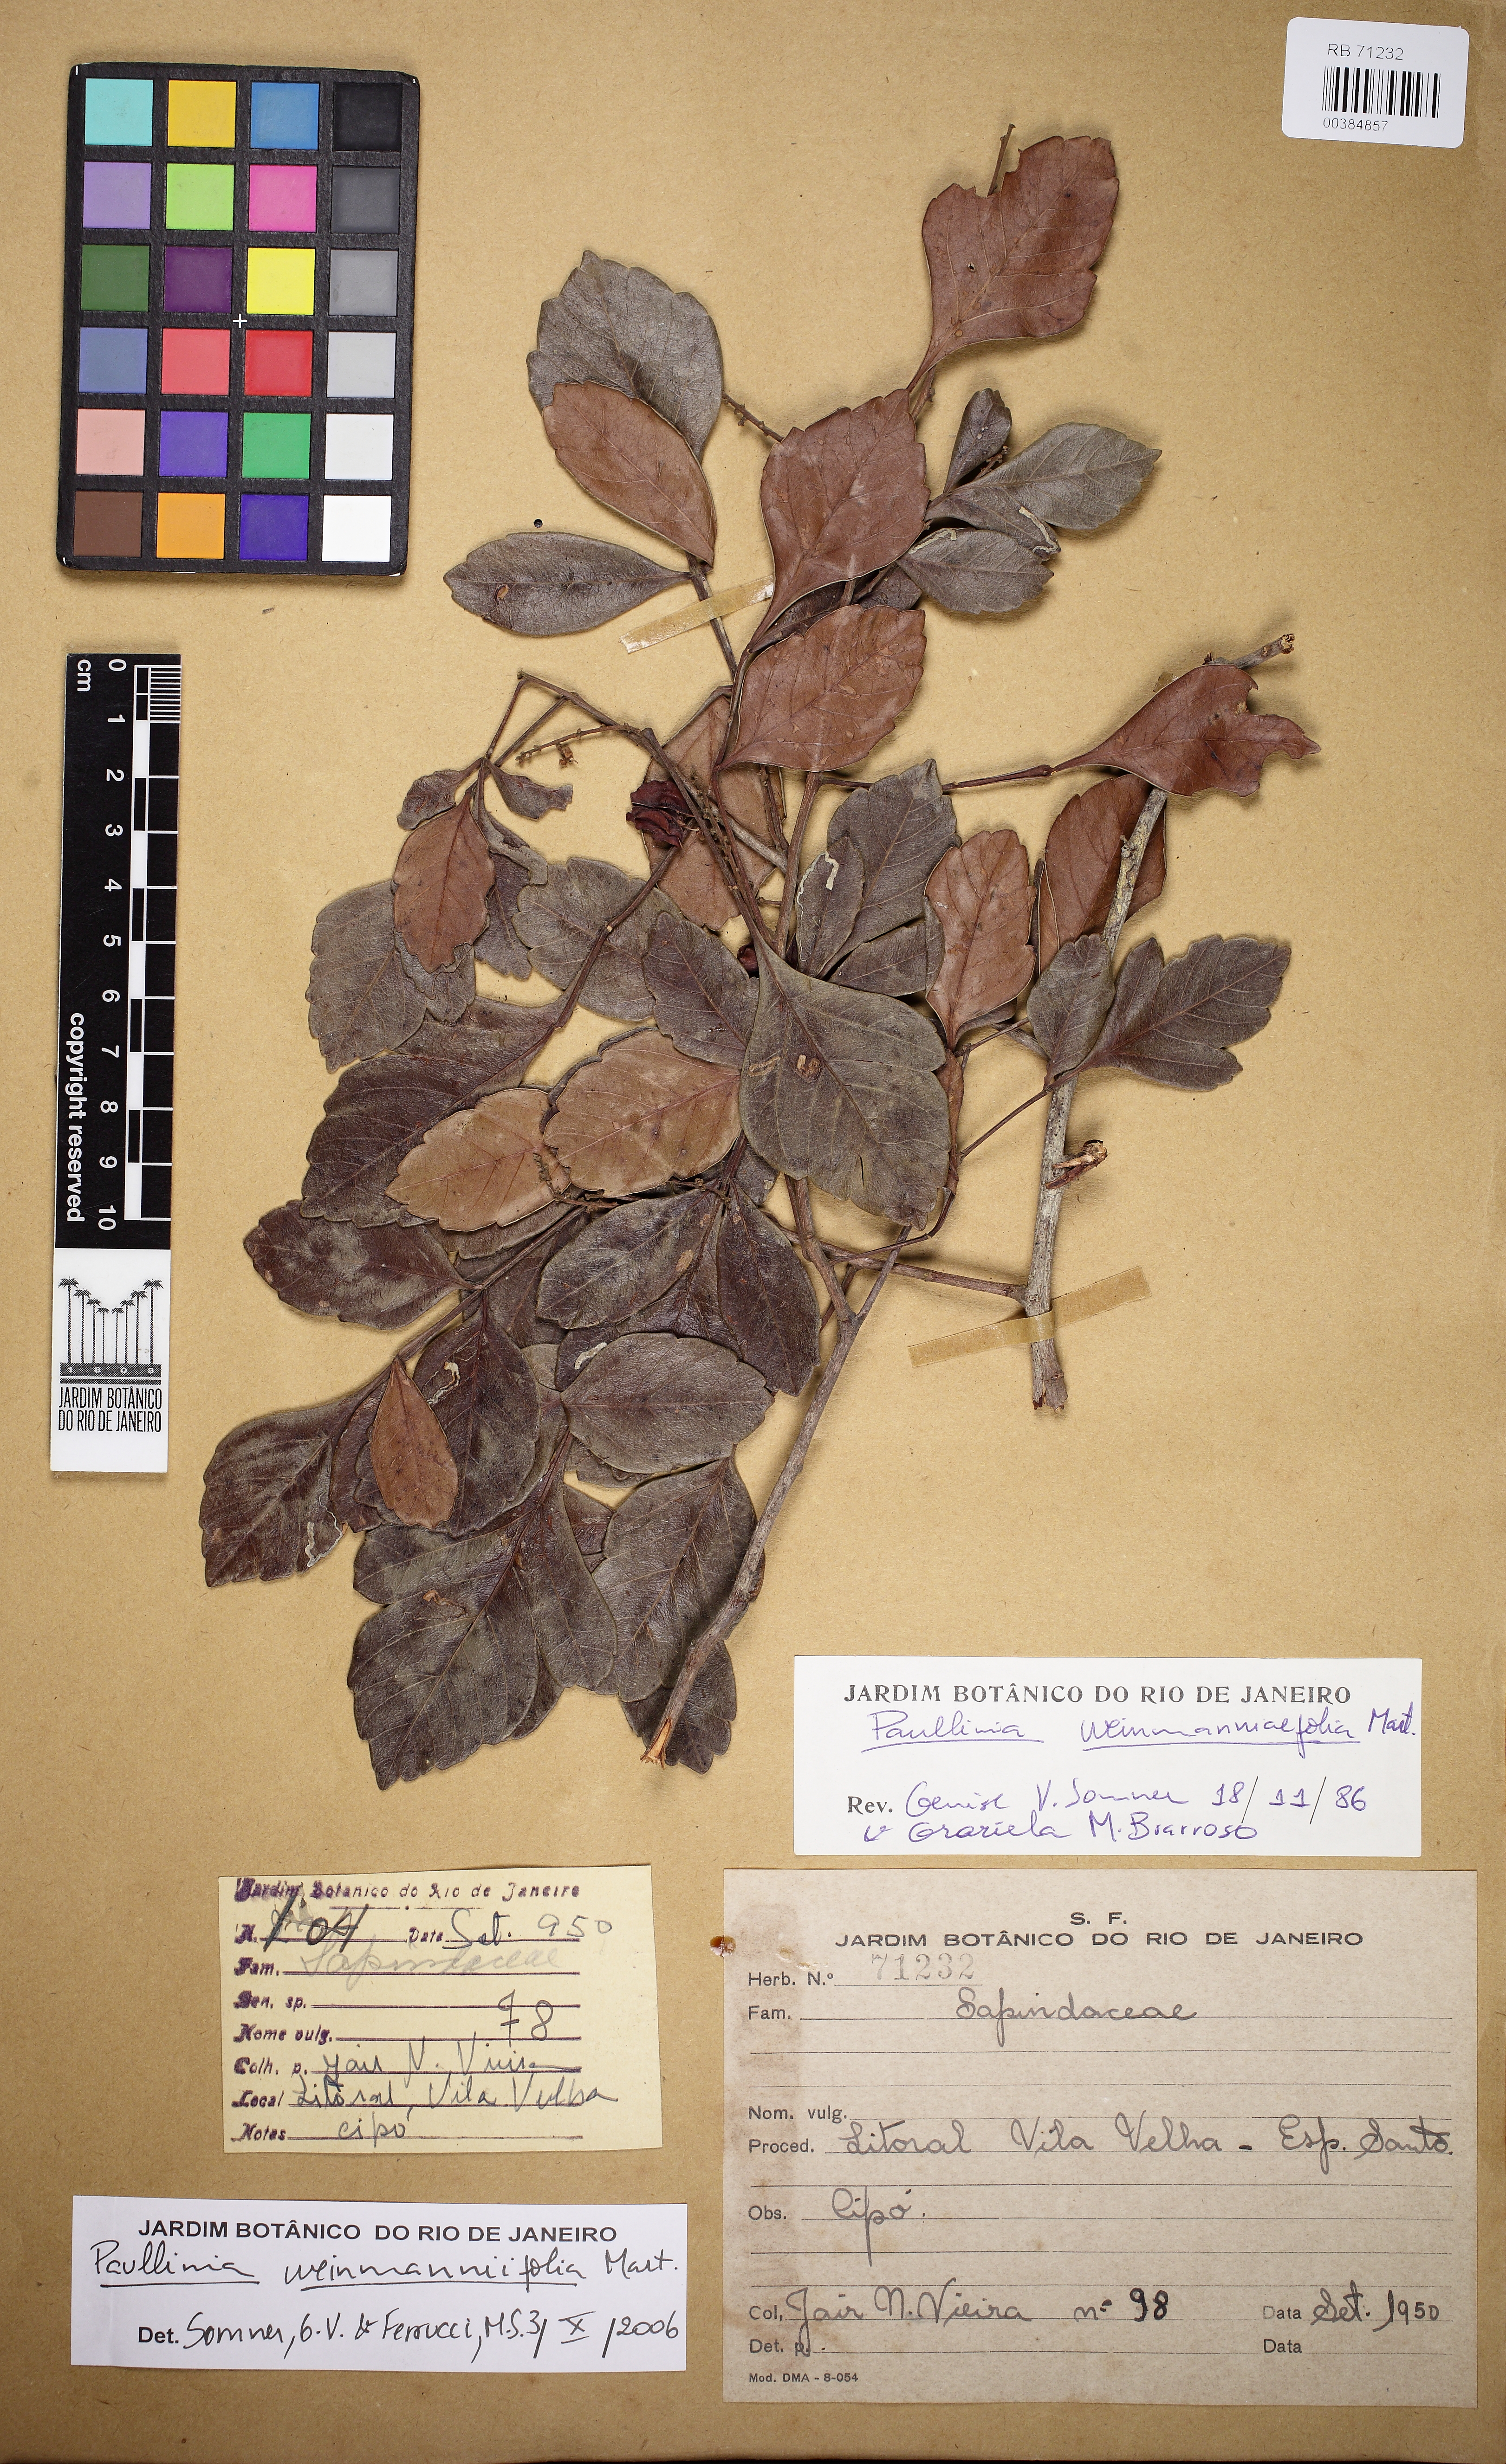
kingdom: Plantae
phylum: Tracheophyta
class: Magnoliopsida
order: Sapindales
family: Sapindaceae
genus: Paullinia
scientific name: Paullinia weinmanniifolia
